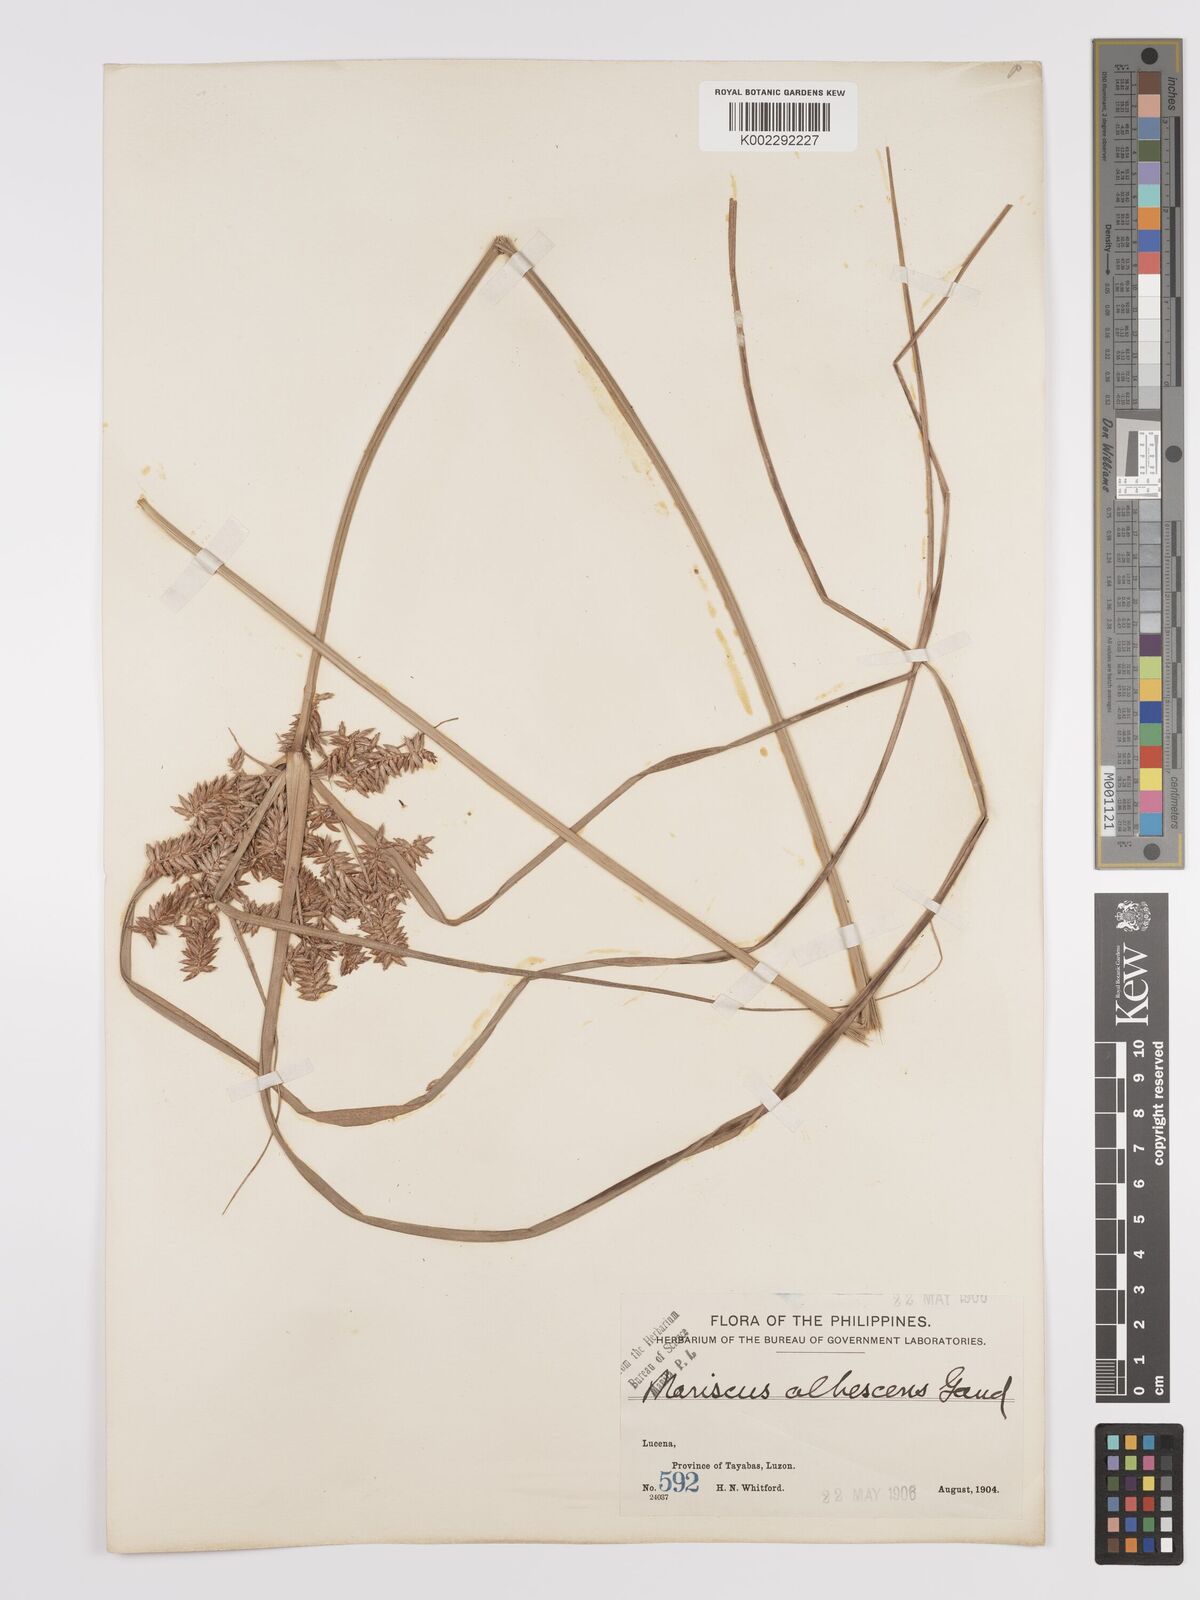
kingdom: Plantae
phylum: Tracheophyta
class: Liliopsida
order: Poales
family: Cyperaceae
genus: Cyperus
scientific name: Cyperus javanicus
